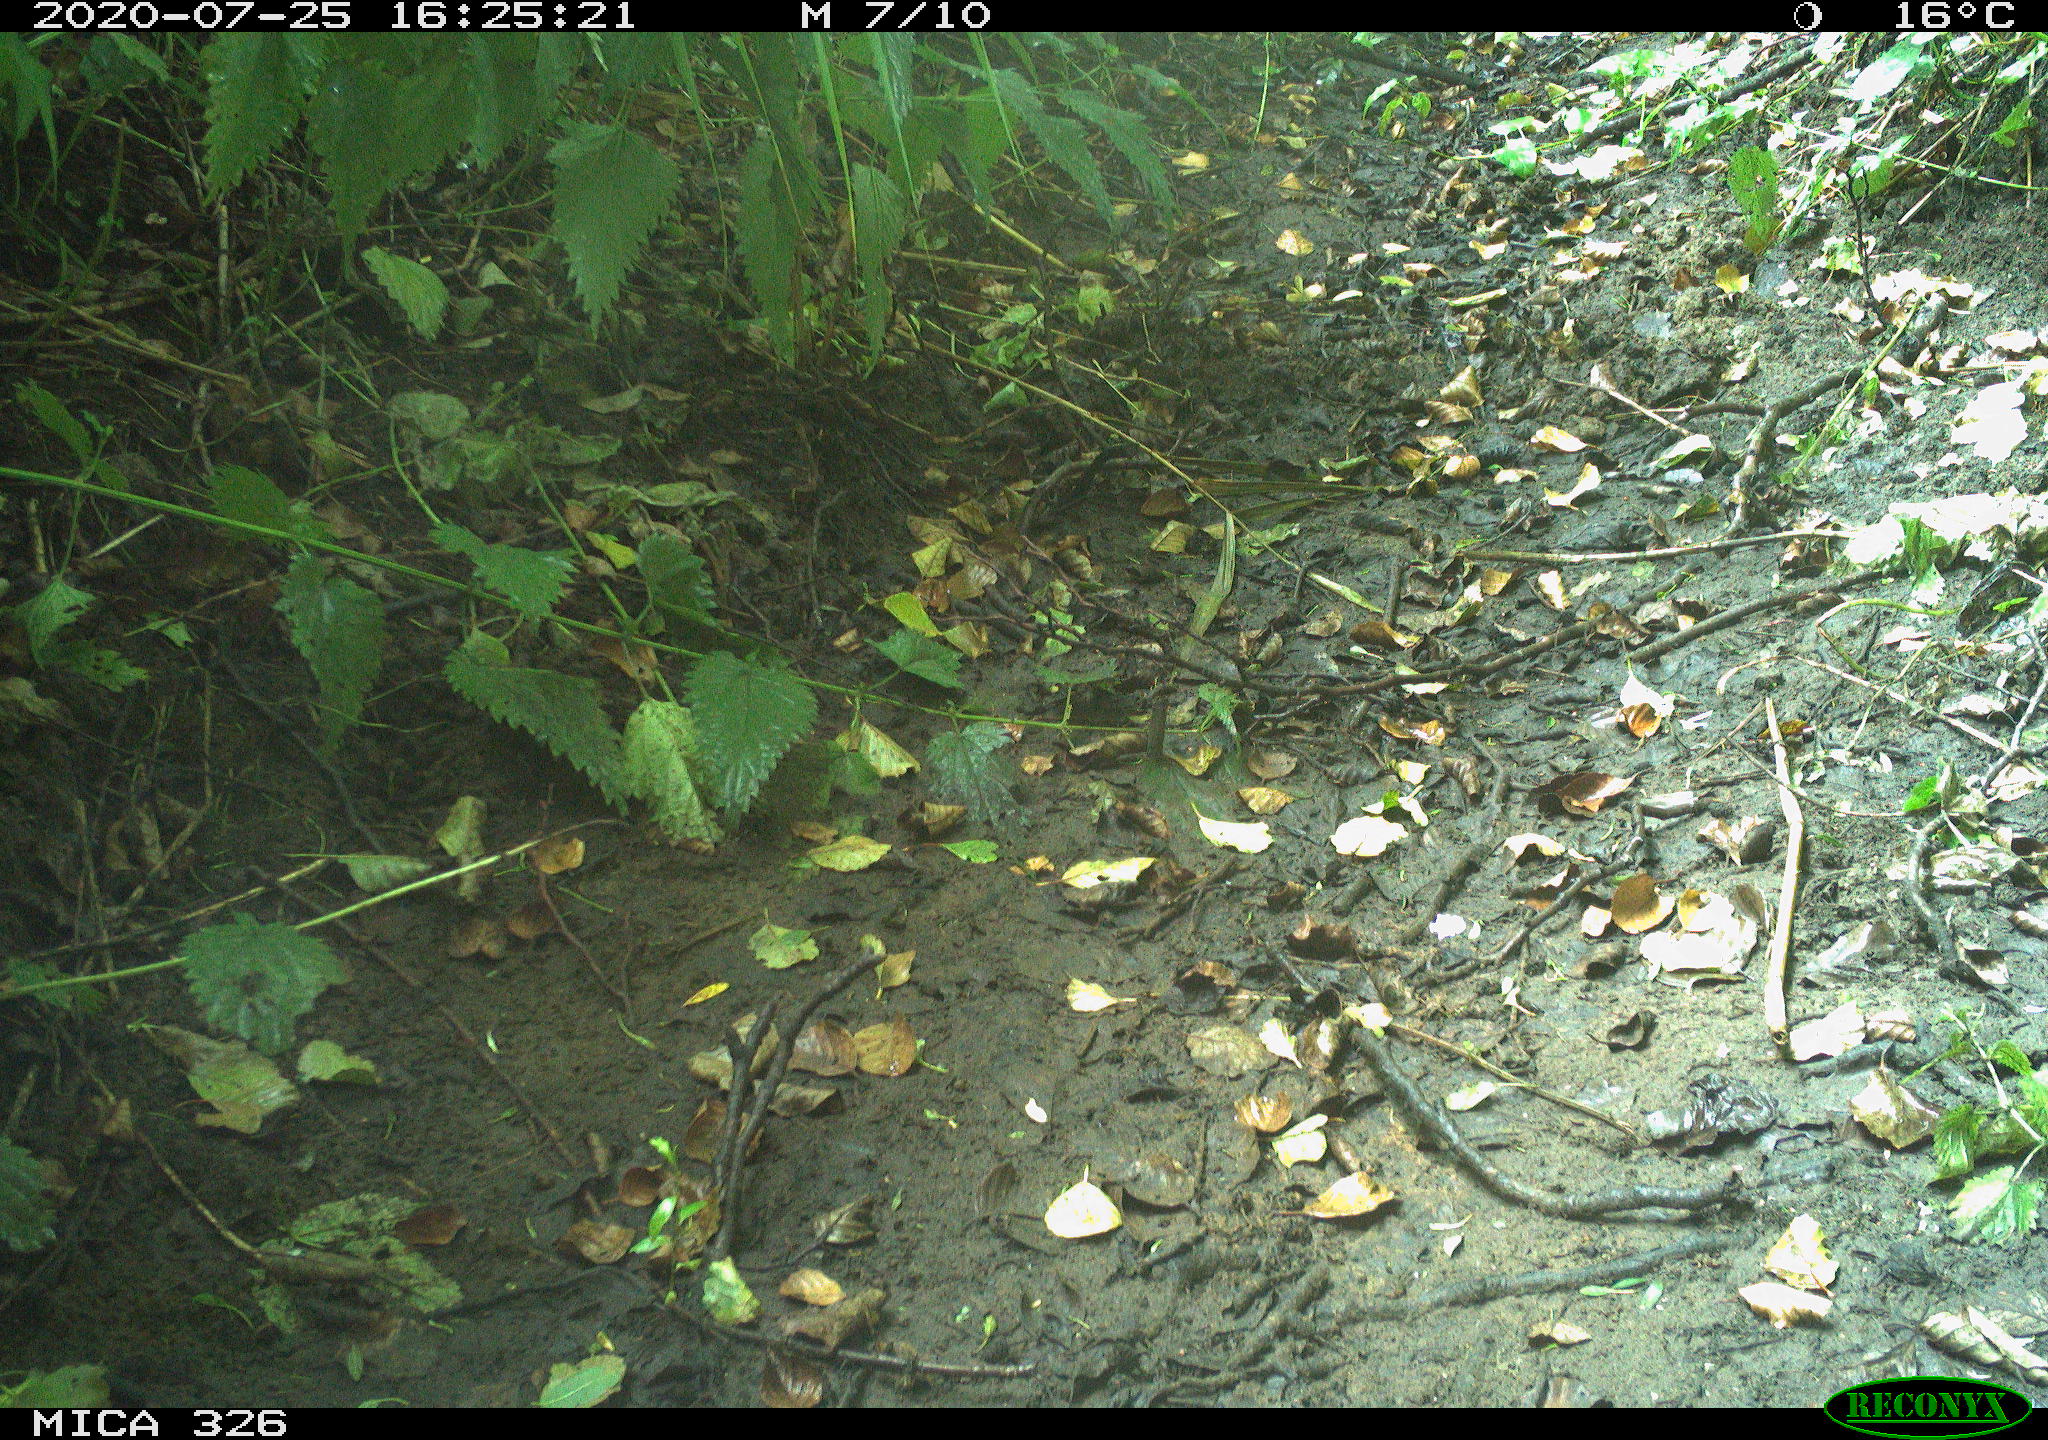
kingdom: Animalia
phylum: Chordata
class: Aves
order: Passeriformes
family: Muscicapidae
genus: Erithacus
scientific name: Erithacus rubecula
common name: European robin
